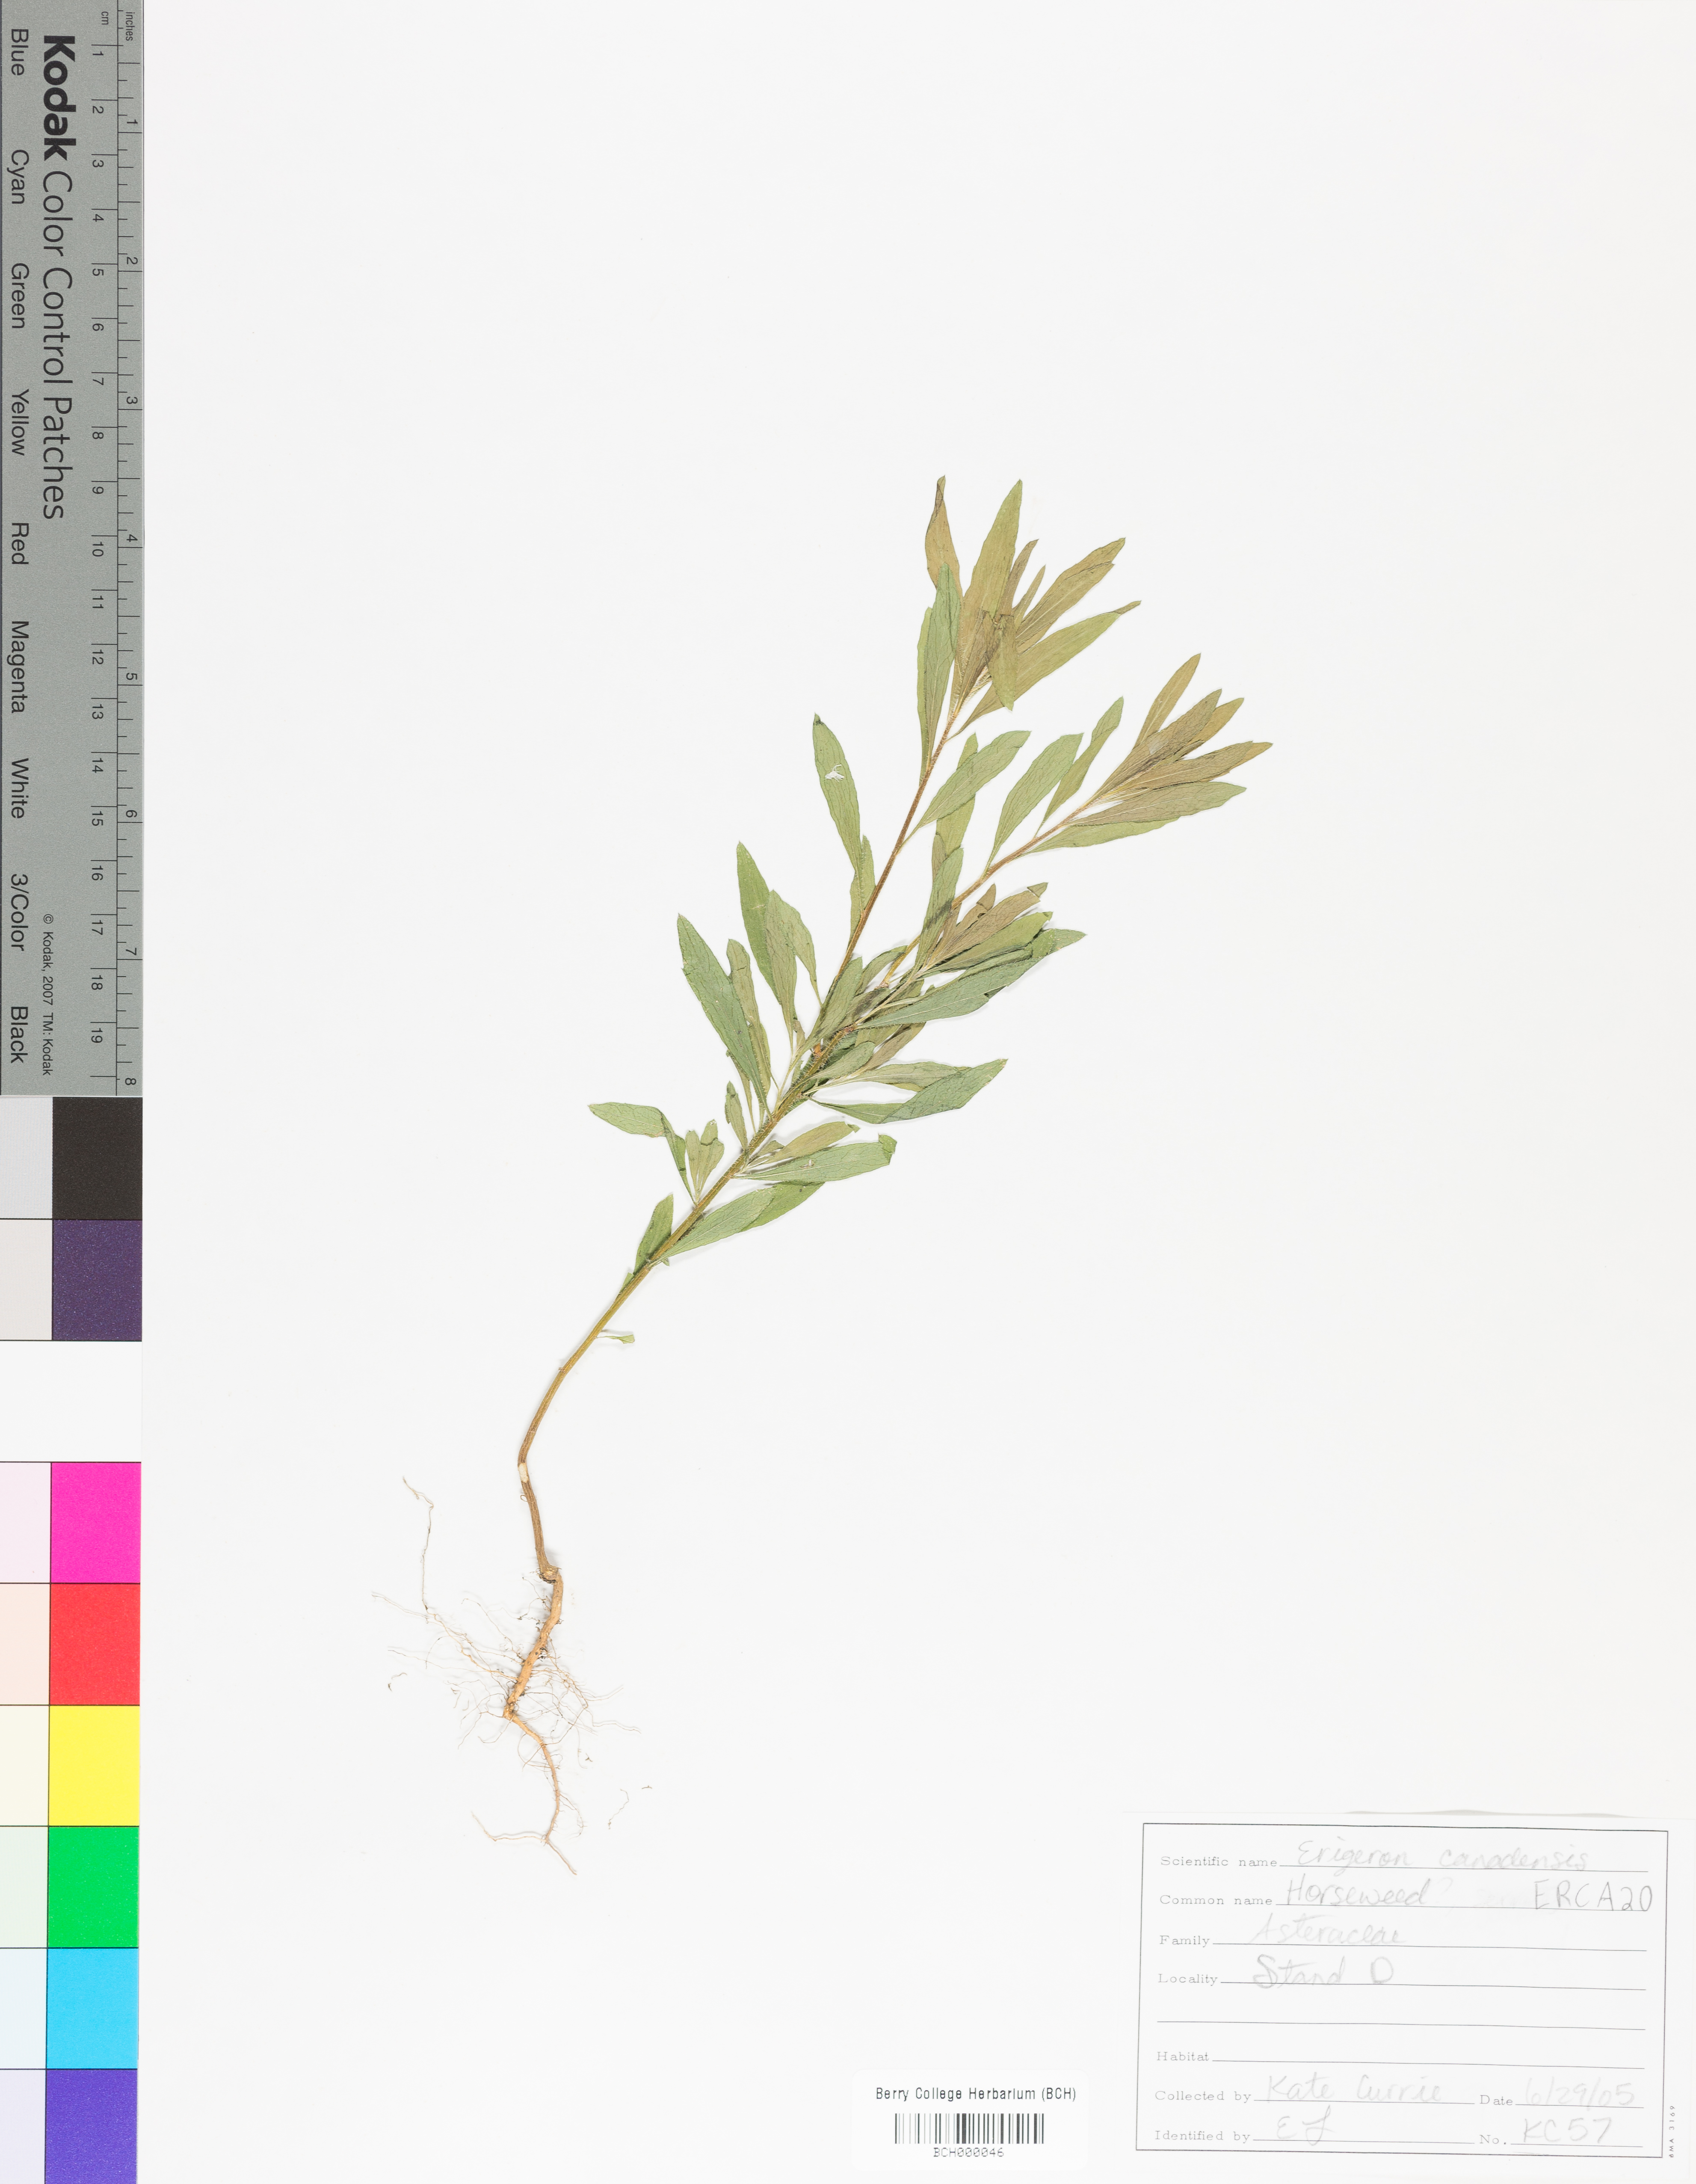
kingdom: Plantae
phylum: Tracheophyta
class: Magnoliopsida
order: Asterales
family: Asteraceae
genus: Erigeron
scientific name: Erigeron canadensis
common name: Canadian fleabane
